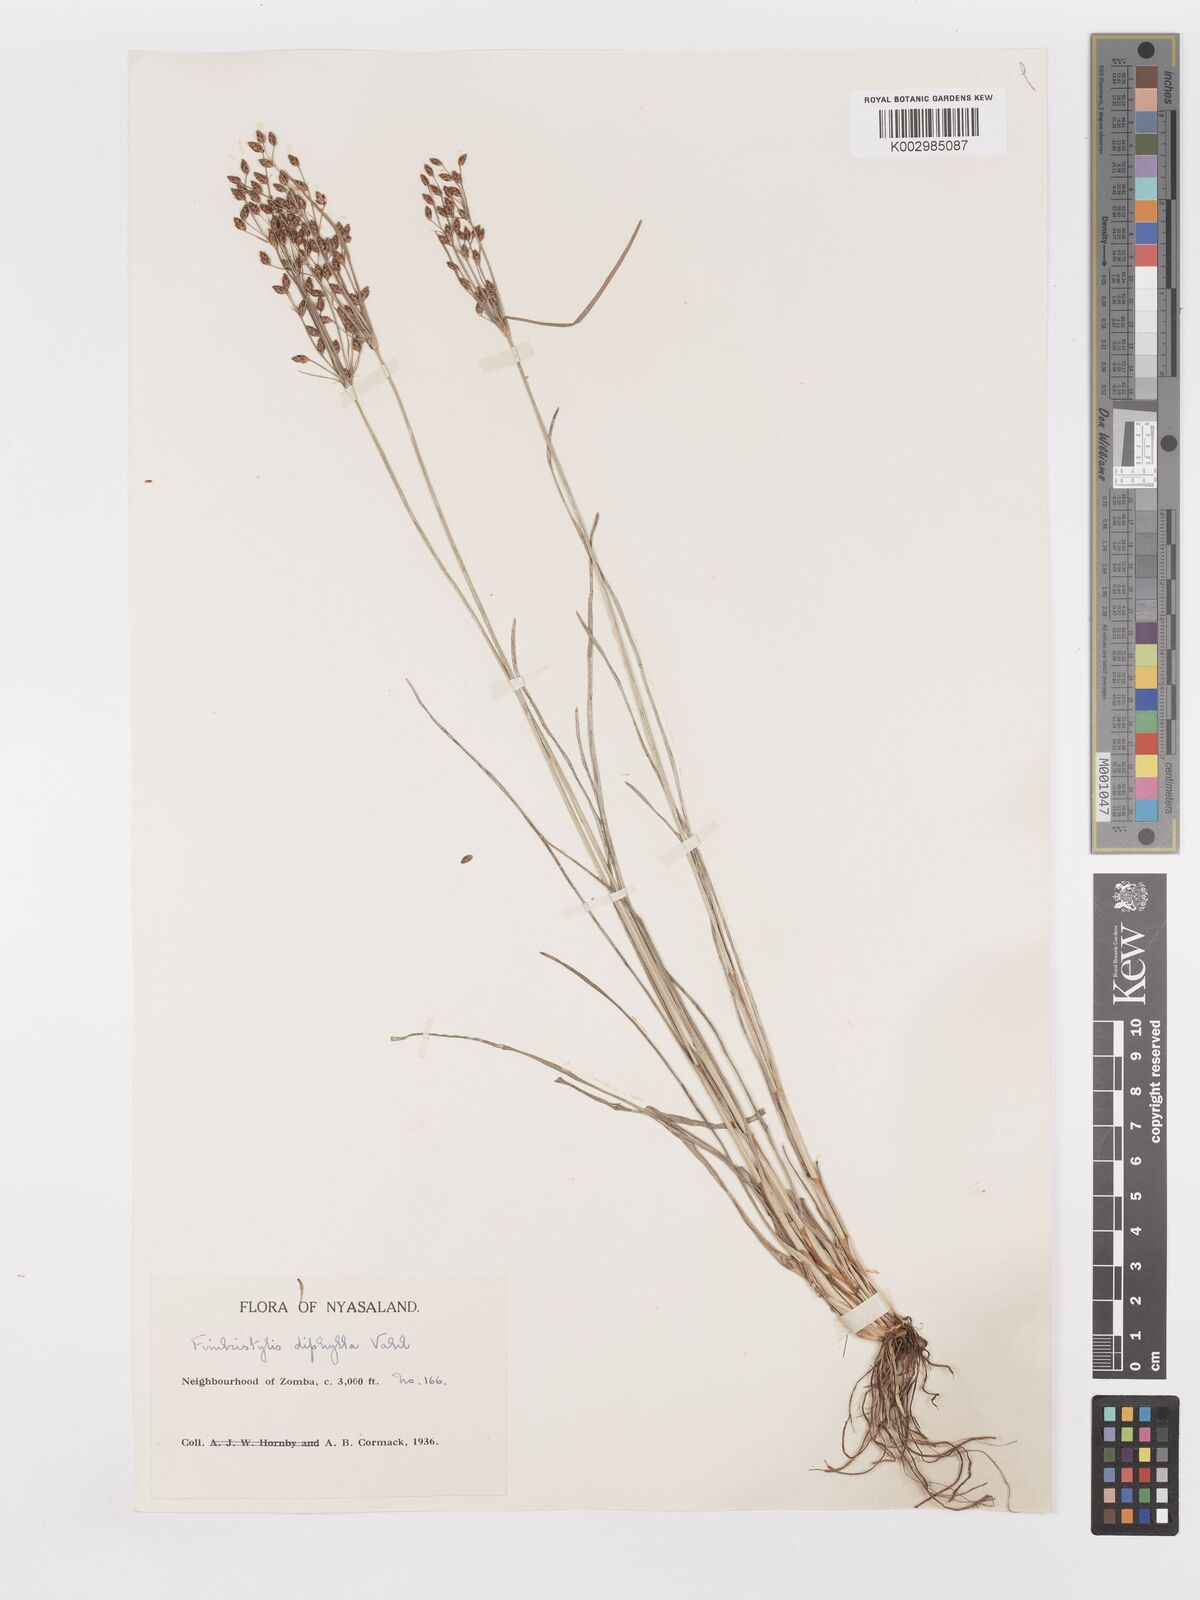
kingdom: Plantae
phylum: Tracheophyta
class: Liliopsida
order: Poales
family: Cyperaceae
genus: Fimbristylis
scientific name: Fimbristylis dichotoma
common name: Forked fimbry
